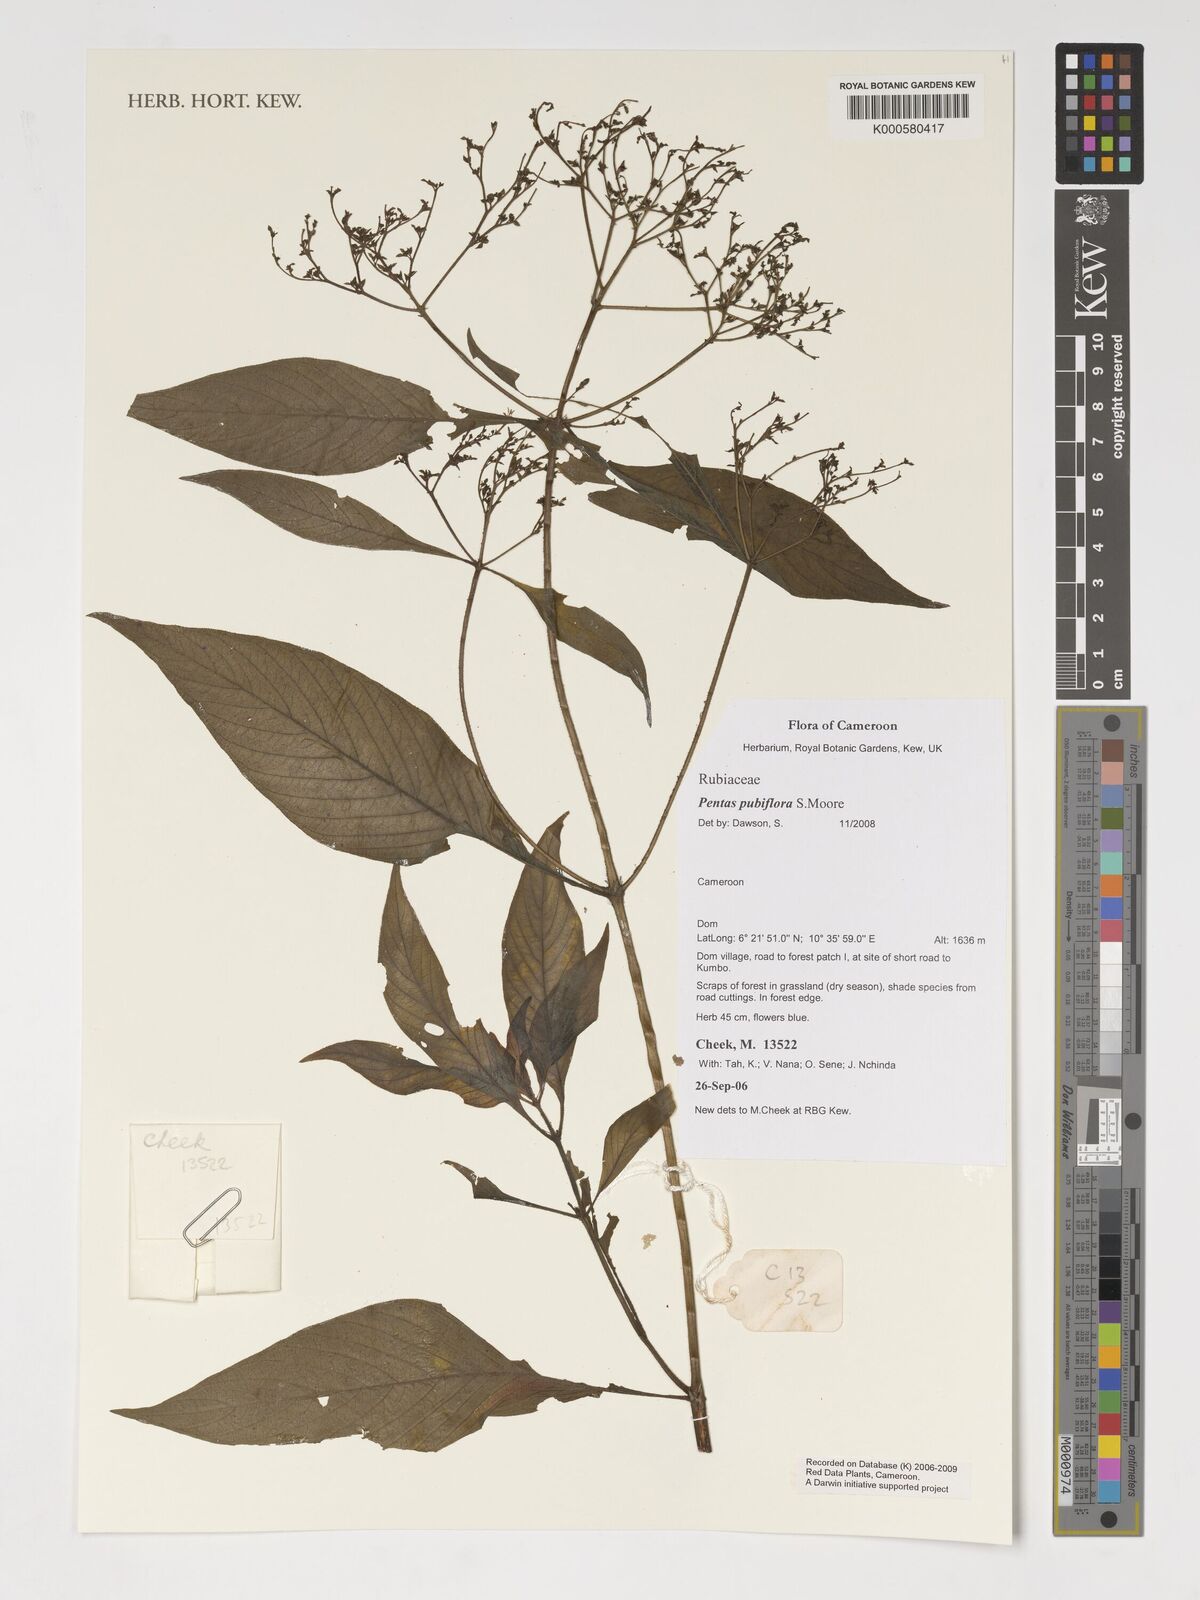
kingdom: Plantae
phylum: Tracheophyta
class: Magnoliopsida
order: Gentianales
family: Rubiaceae
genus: Pentas
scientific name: Pentas pubiflora
